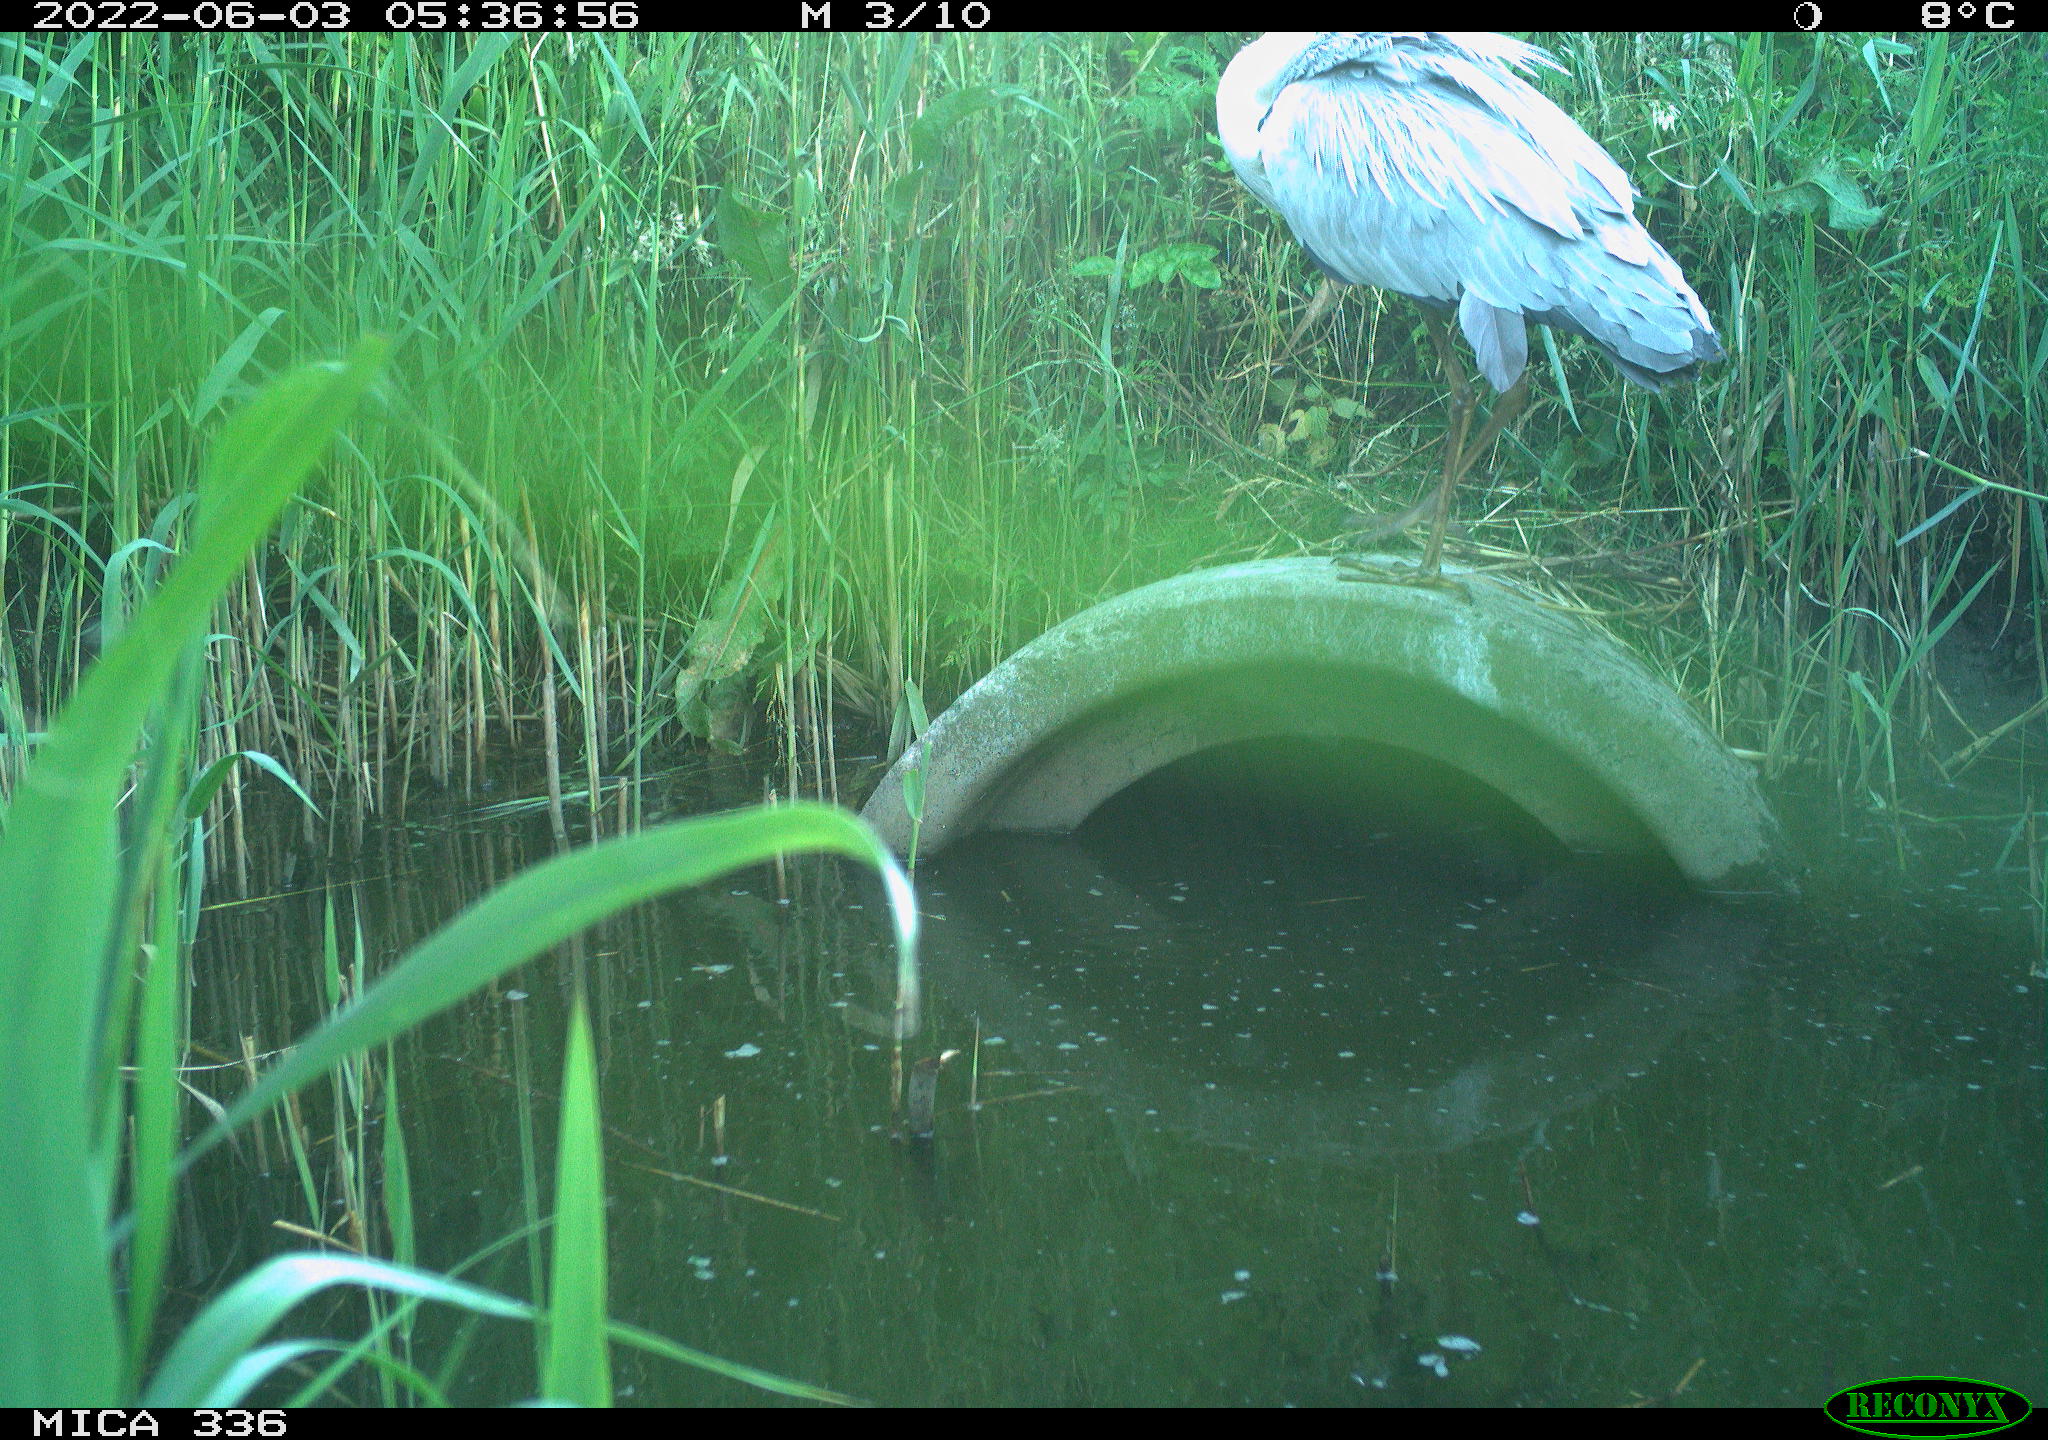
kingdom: Animalia
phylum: Chordata
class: Aves
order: Pelecaniformes
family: Ardeidae
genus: Ardea
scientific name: Ardea
